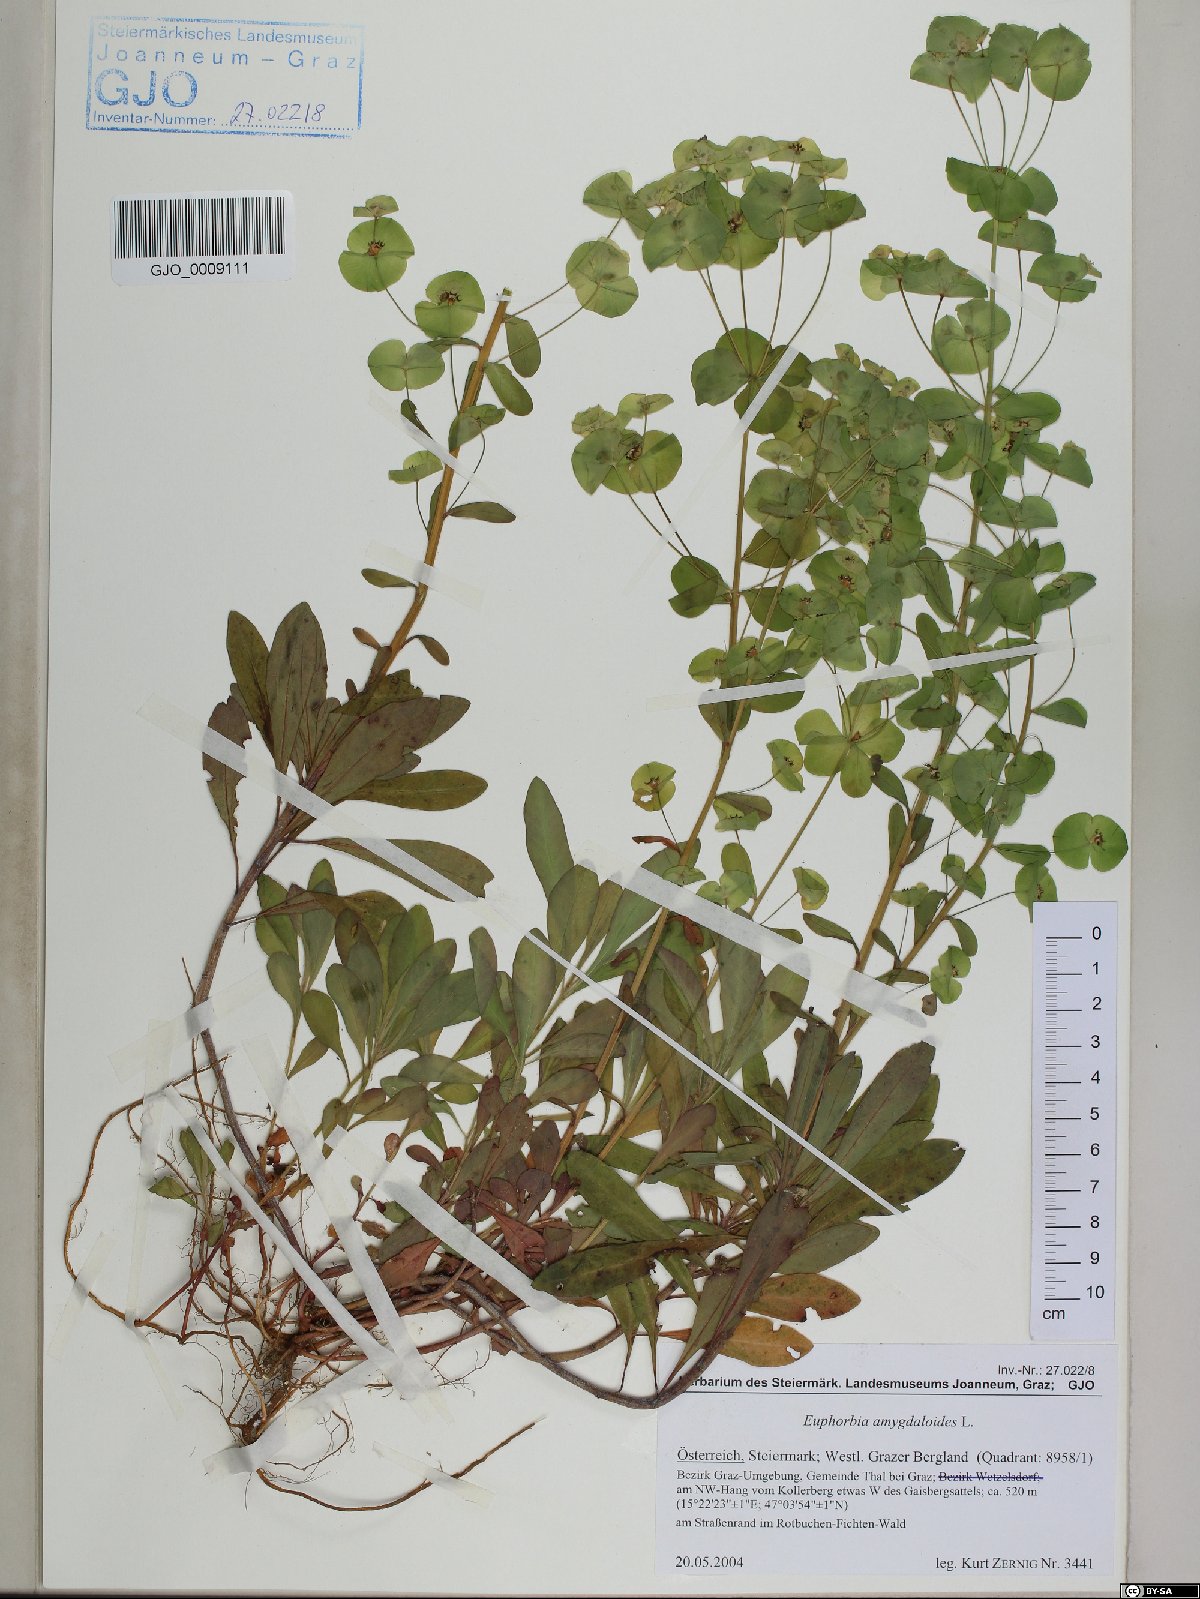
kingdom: Plantae
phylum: Tracheophyta
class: Magnoliopsida
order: Malpighiales
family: Euphorbiaceae
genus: Euphorbia
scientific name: Euphorbia amygdaloides
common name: Wood spurge
